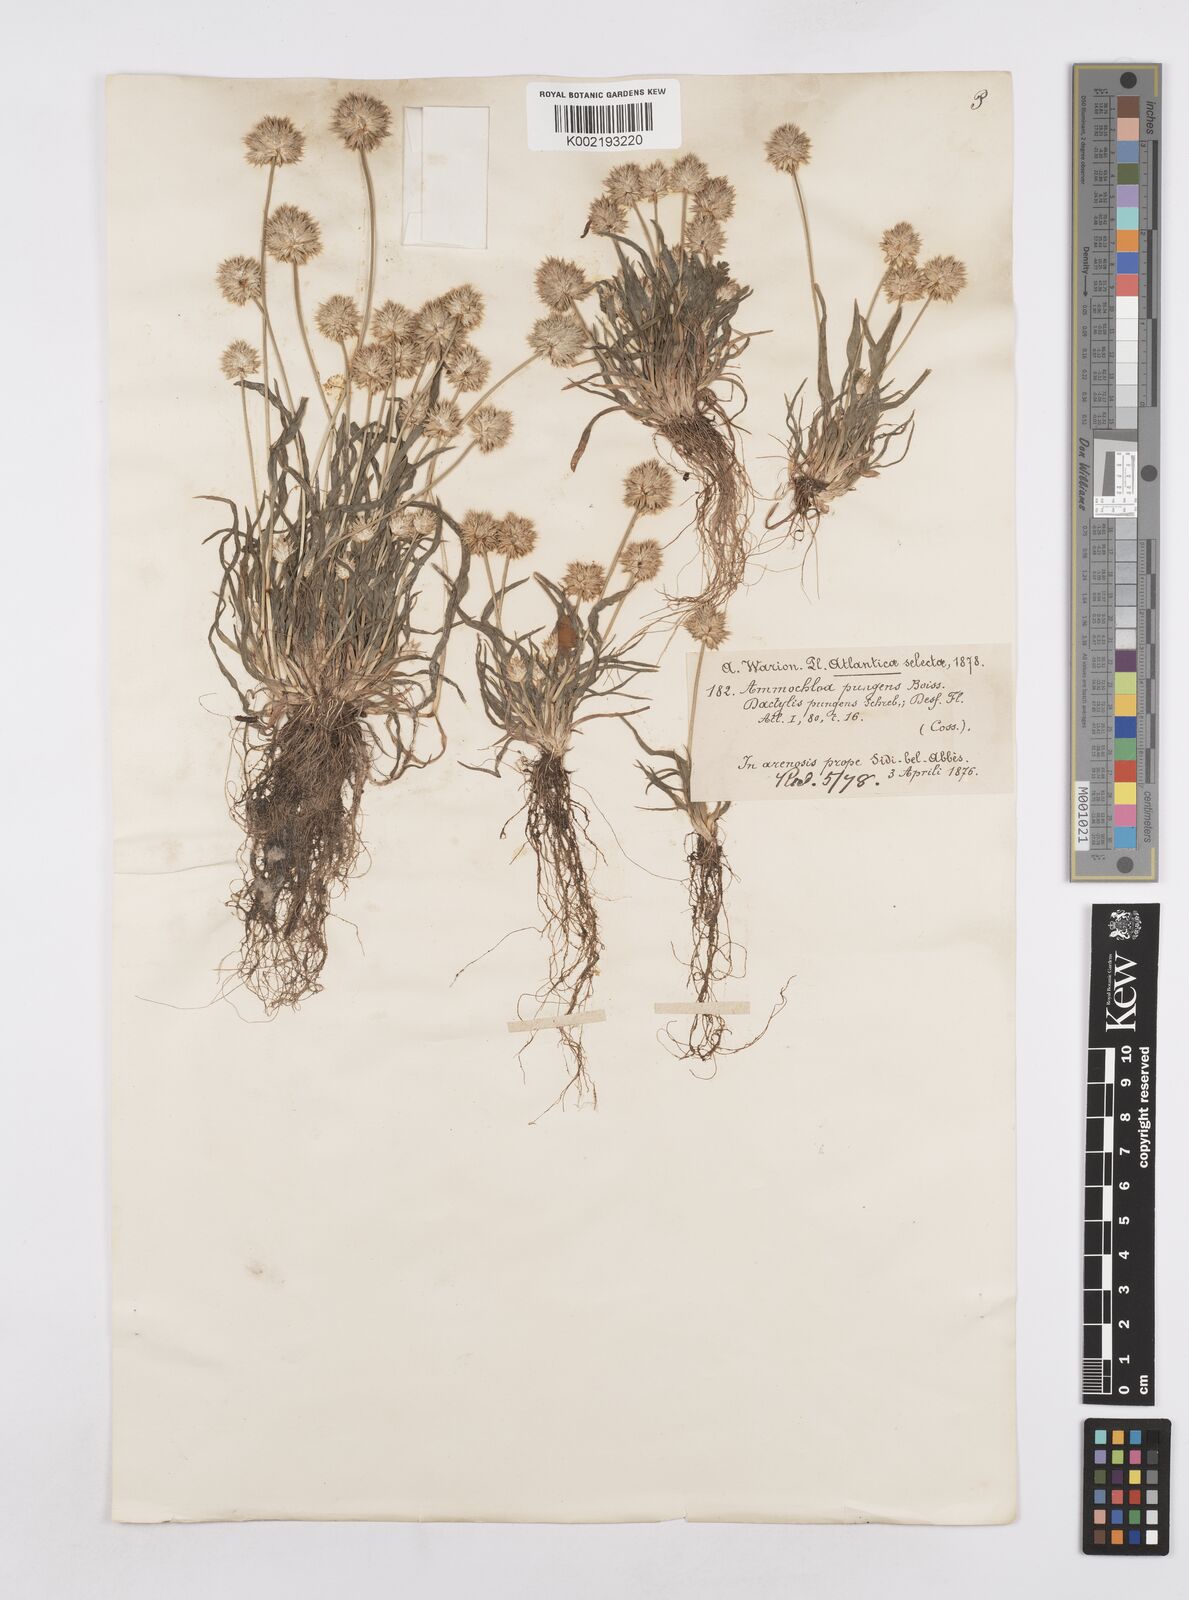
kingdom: Plantae
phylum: Tracheophyta
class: Liliopsida
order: Poales
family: Poaceae
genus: Ammochloa
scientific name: Ammochloa pungens
